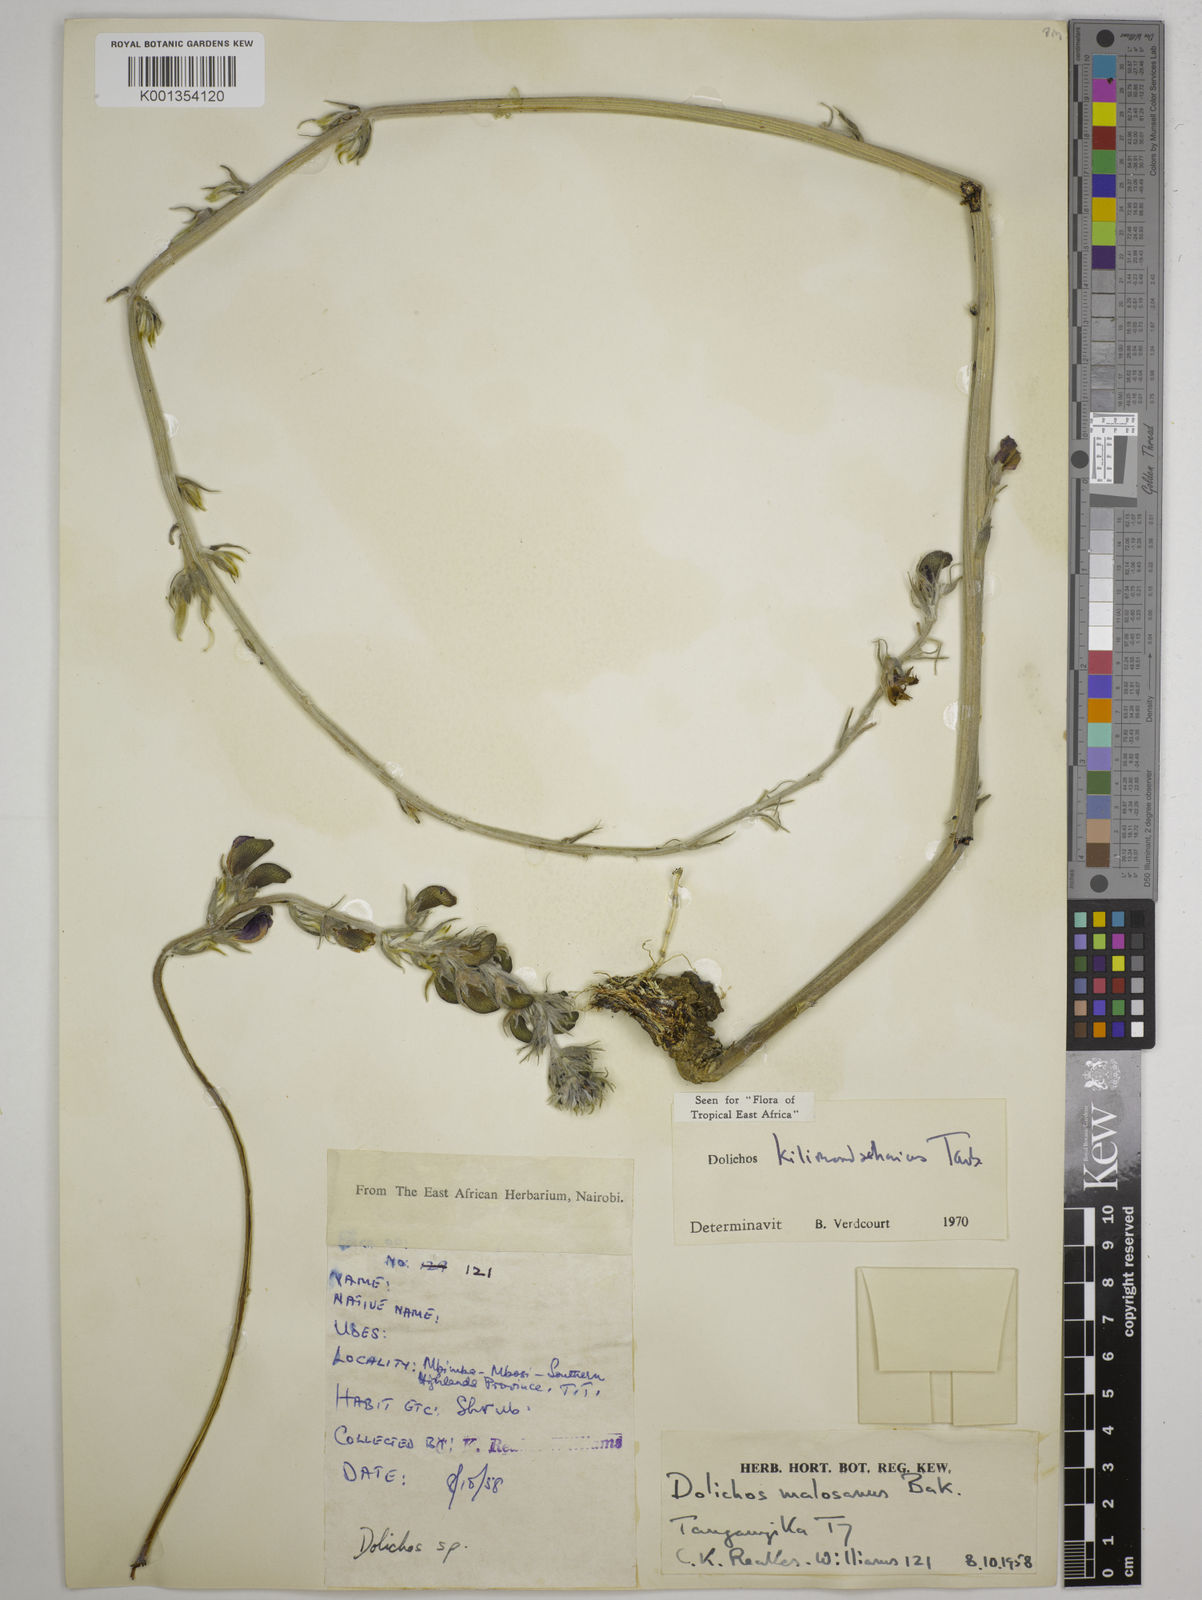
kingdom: Plantae
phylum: Tracheophyta
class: Magnoliopsida
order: Fabales
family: Fabaceae
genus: Dolichos
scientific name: Dolichos kilimandscharicus
